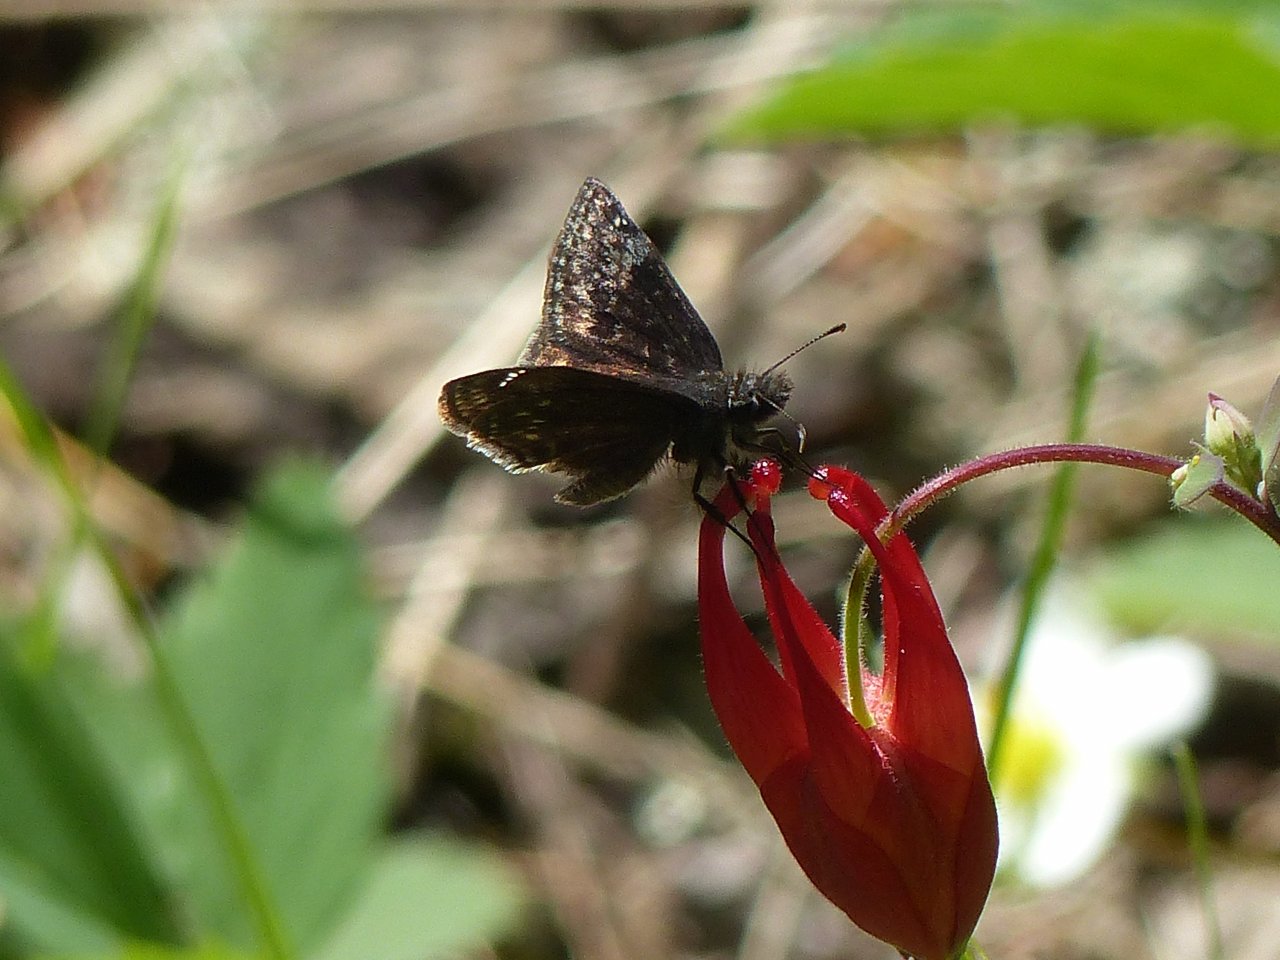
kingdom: Animalia
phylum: Arthropoda
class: Insecta
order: Lepidoptera
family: Hesperiidae
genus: Gesta
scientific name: Gesta
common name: Columbine Duskywing
